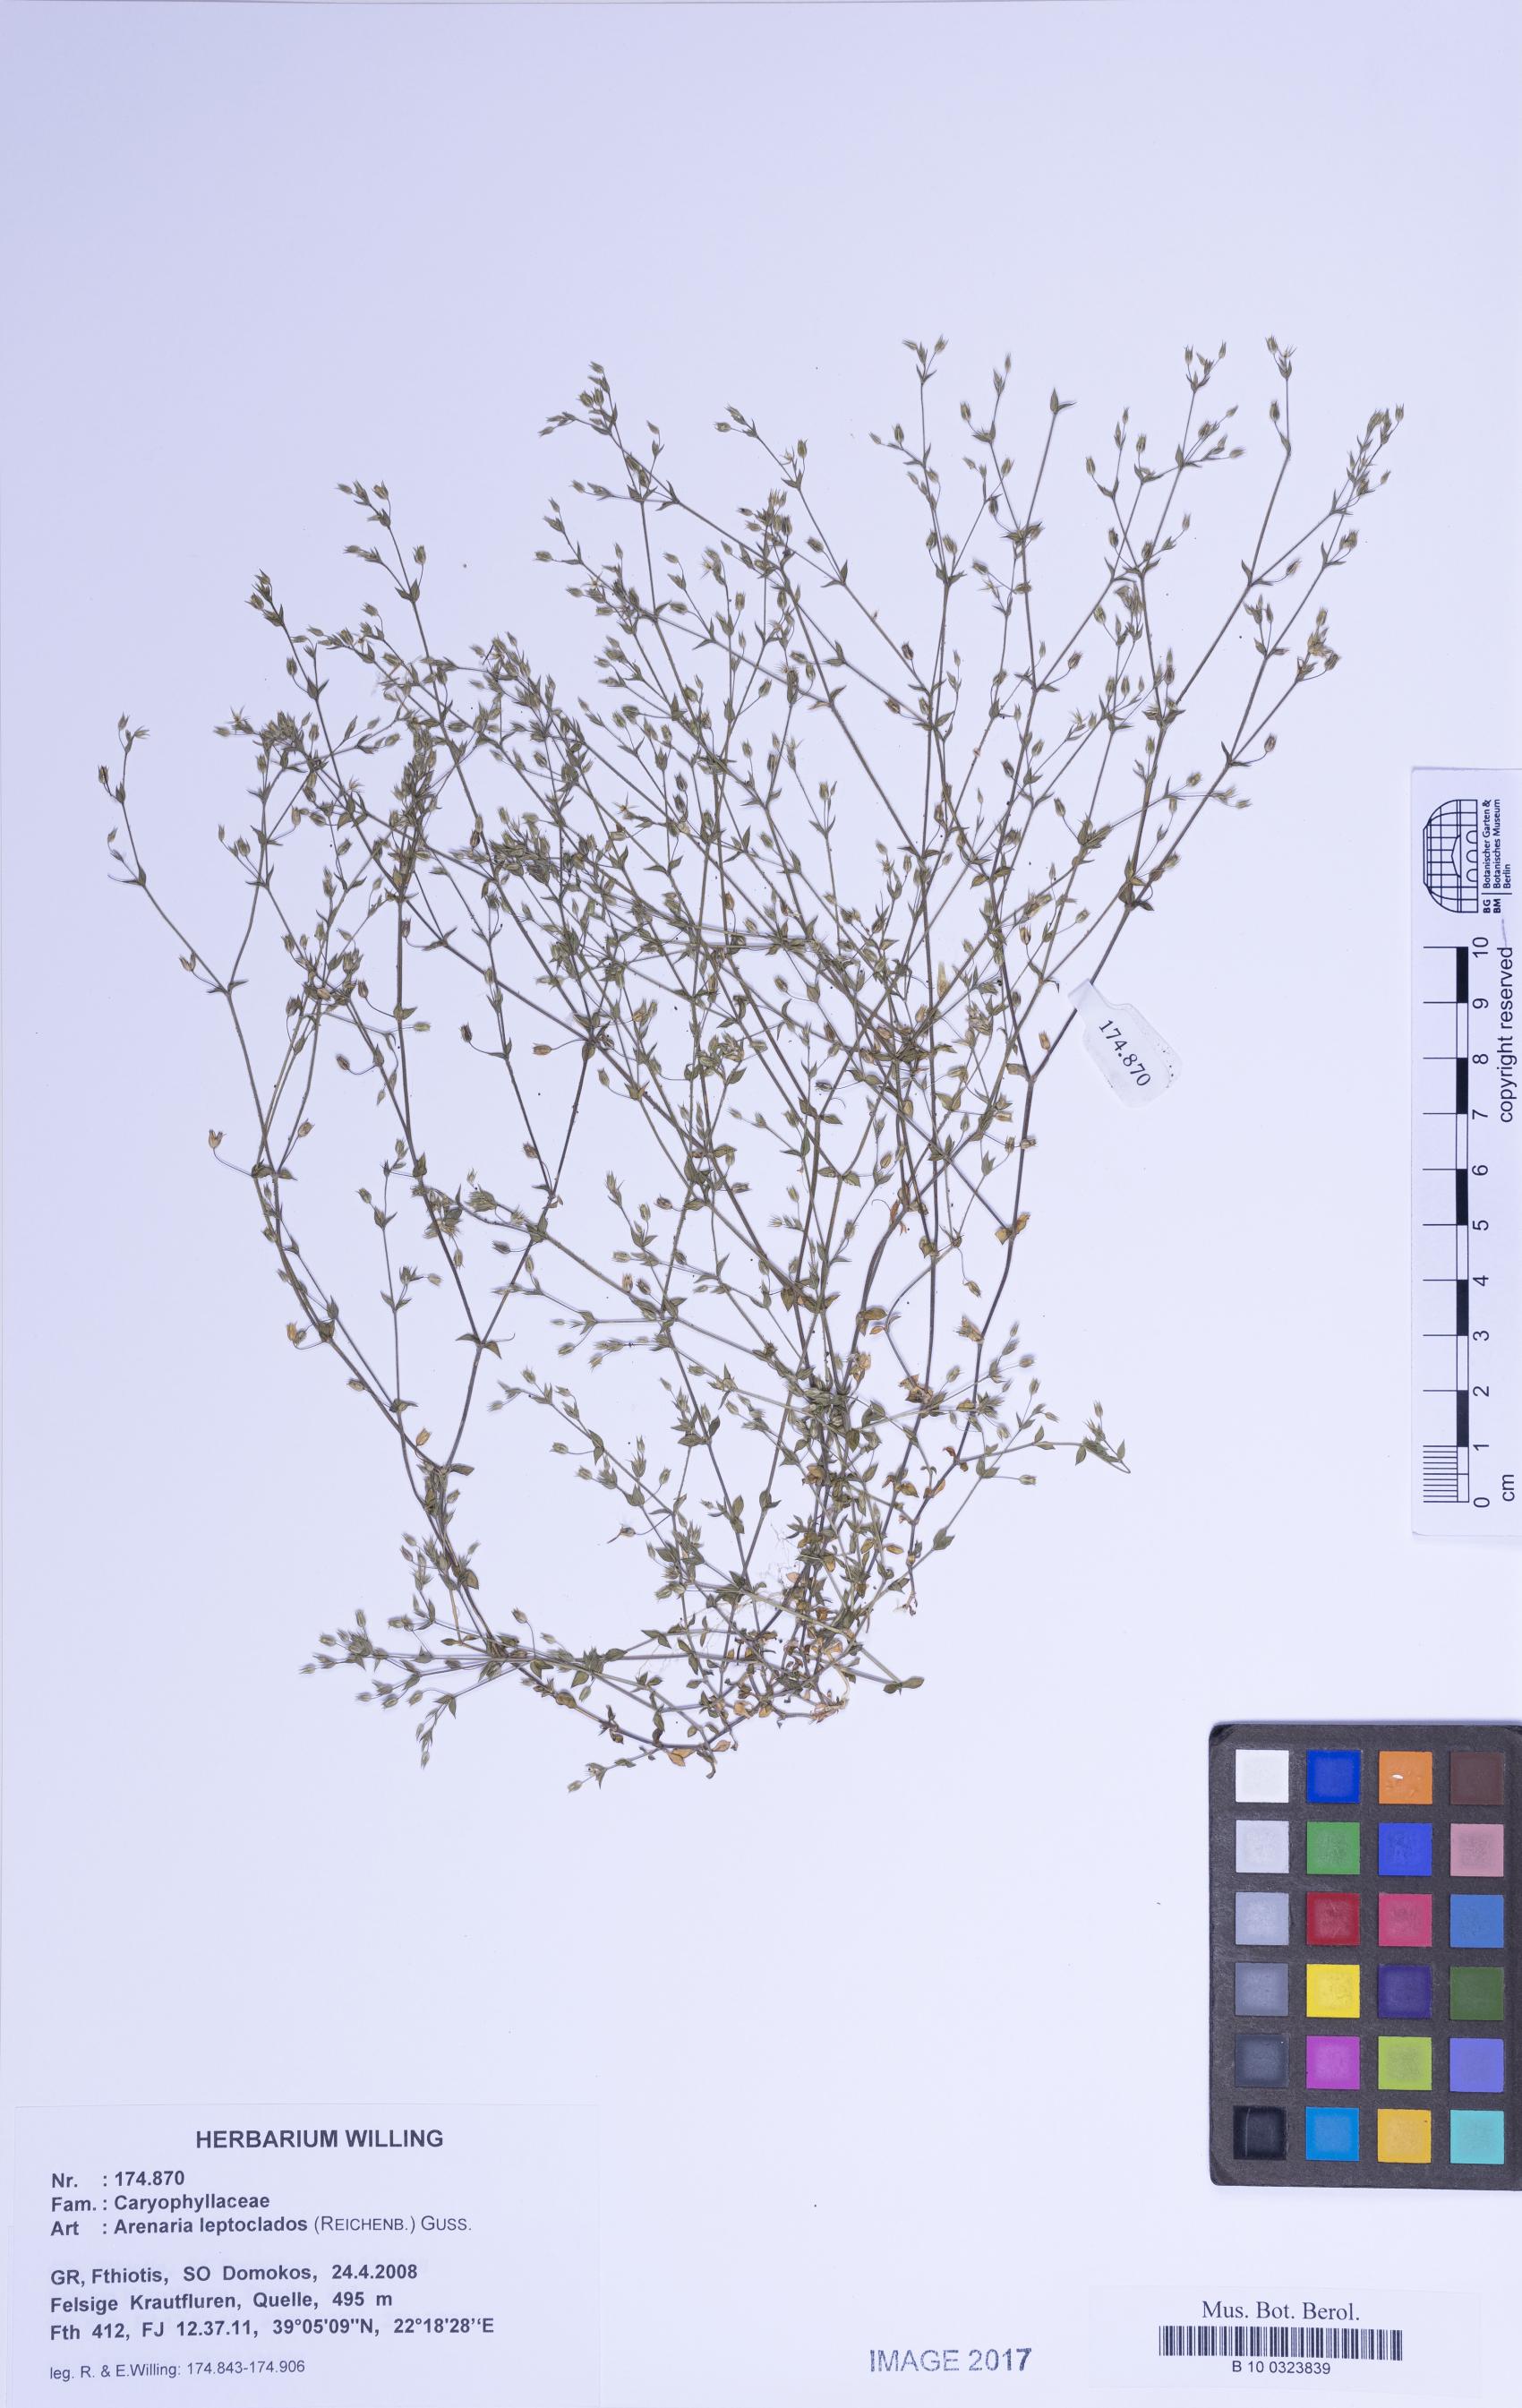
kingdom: Plantae
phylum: Tracheophyta
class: Magnoliopsida
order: Caryophyllales
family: Caryophyllaceae
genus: Arenaria
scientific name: Arenaria leptoclados
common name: Thyme-leaved sandwort
